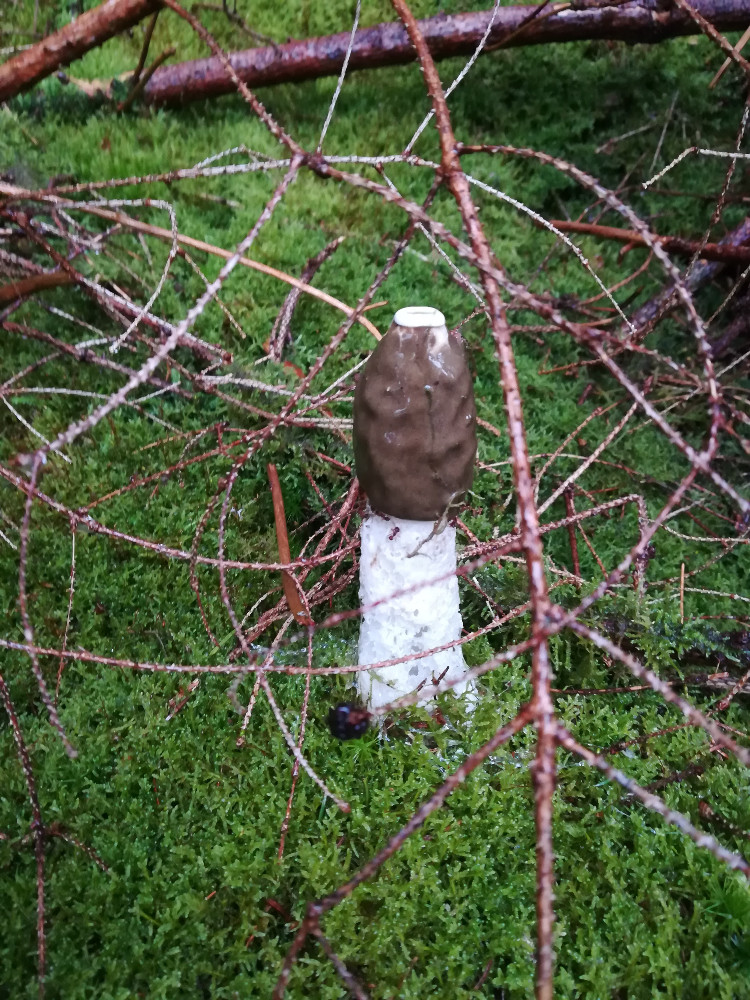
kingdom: Fungi
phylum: Basidiomycota
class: Agaricomycetes
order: Phallales
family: Phallaceae
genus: Phallus
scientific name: Phallus impudicus
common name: almindelig stinksvamp
